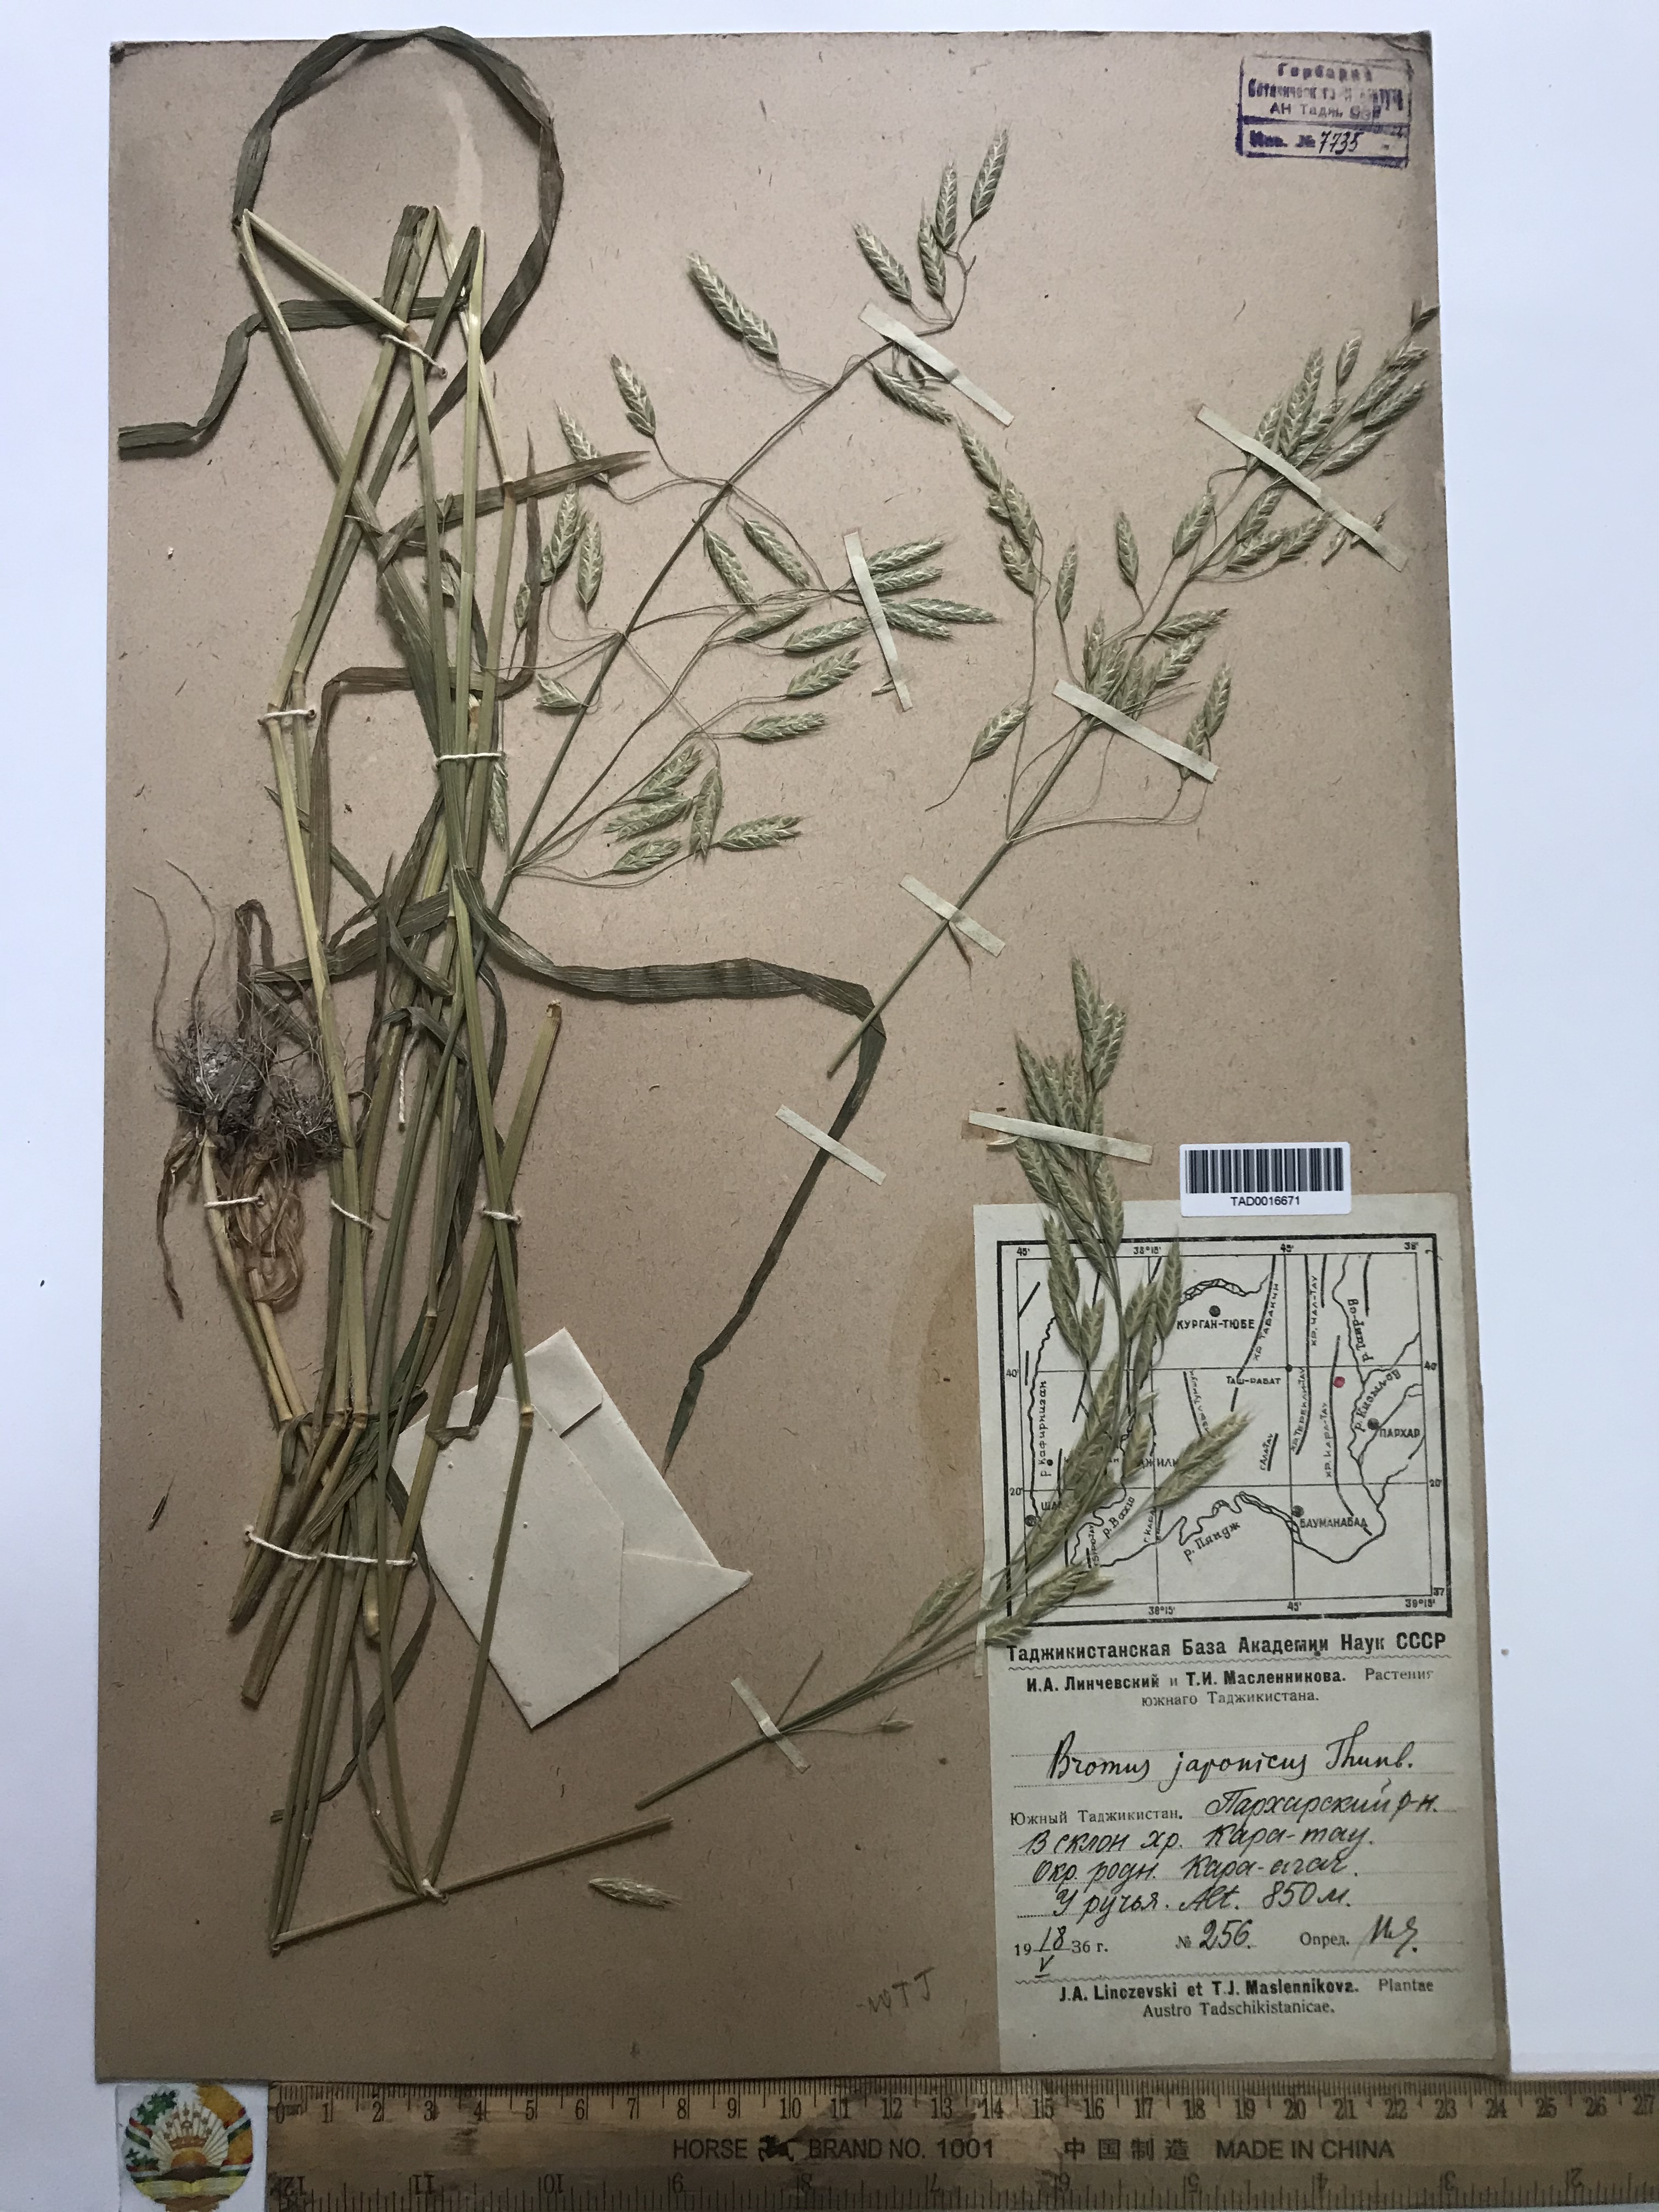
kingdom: Plantae
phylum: Tracheophyta
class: Liliopsida
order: Poales
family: Poaceae
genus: Bromus
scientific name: Bromus japonicus
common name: Japanese brome
